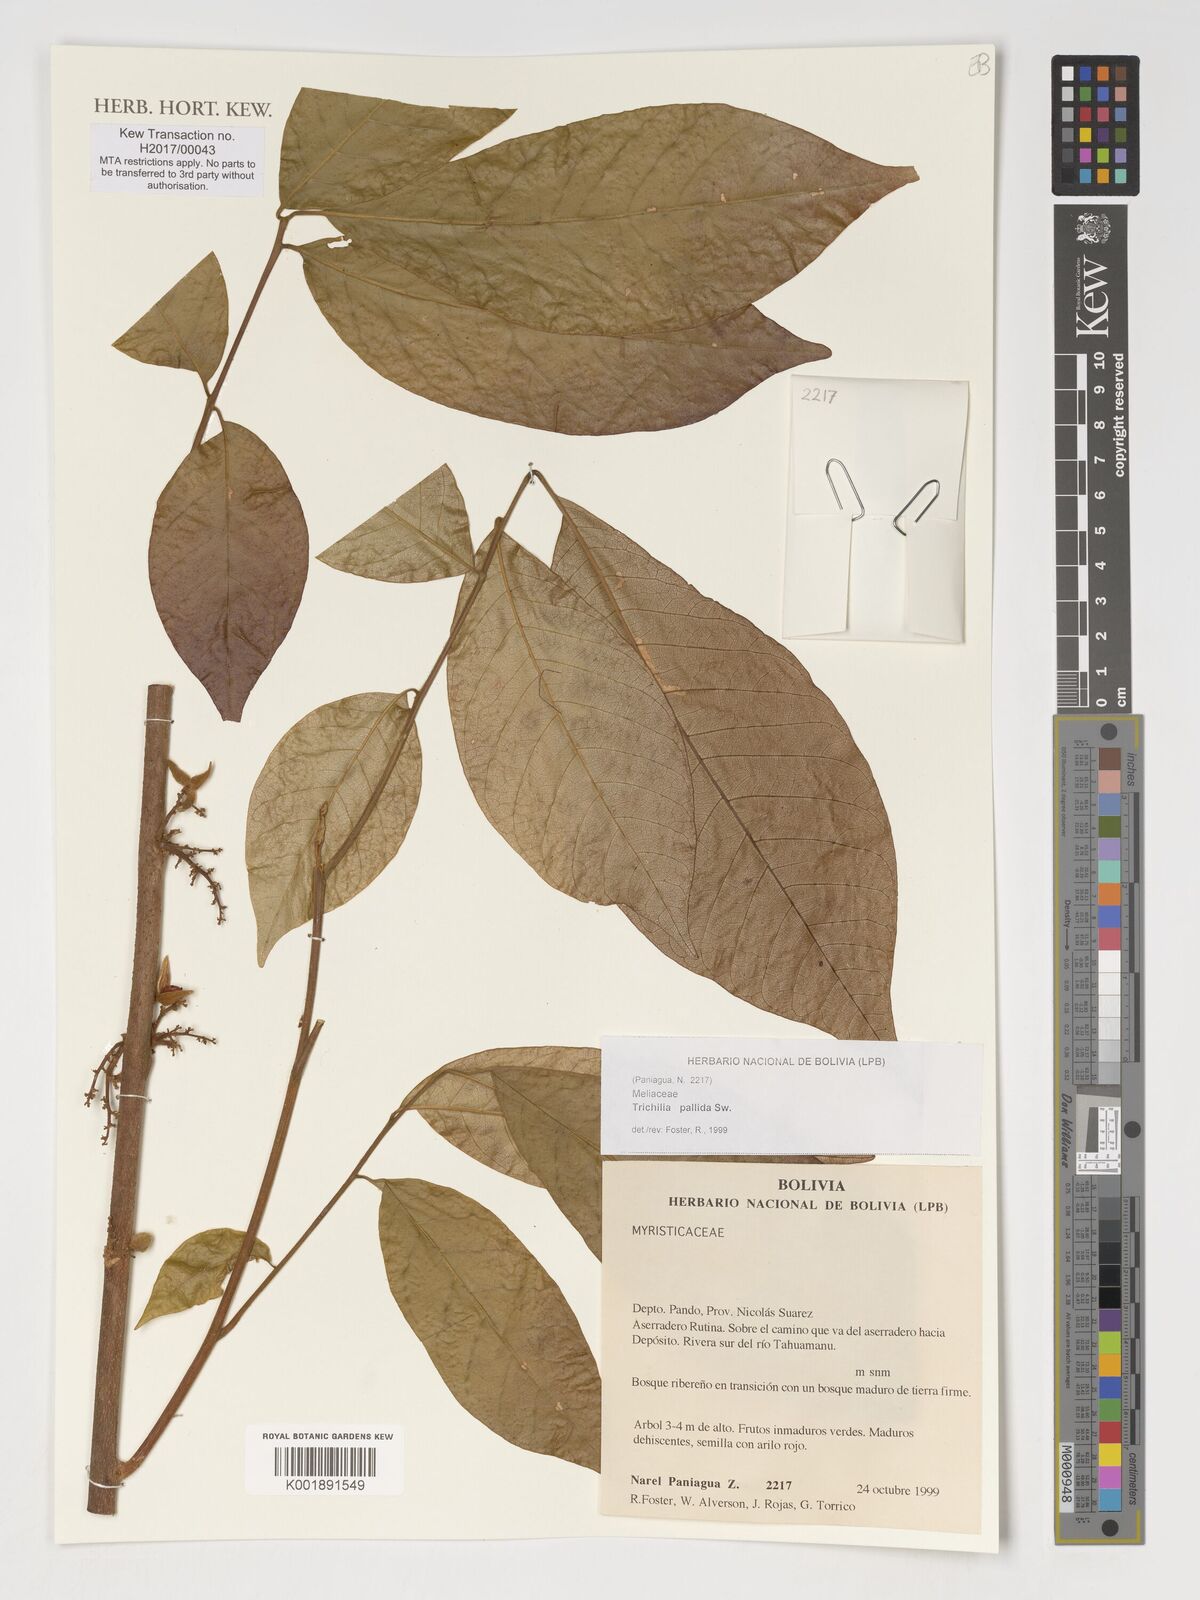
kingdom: Plantae
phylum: Tracheophyta
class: Magnoliopsida
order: Sapindales
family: Meliaceae
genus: Trichilia
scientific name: Trichilia pallida
